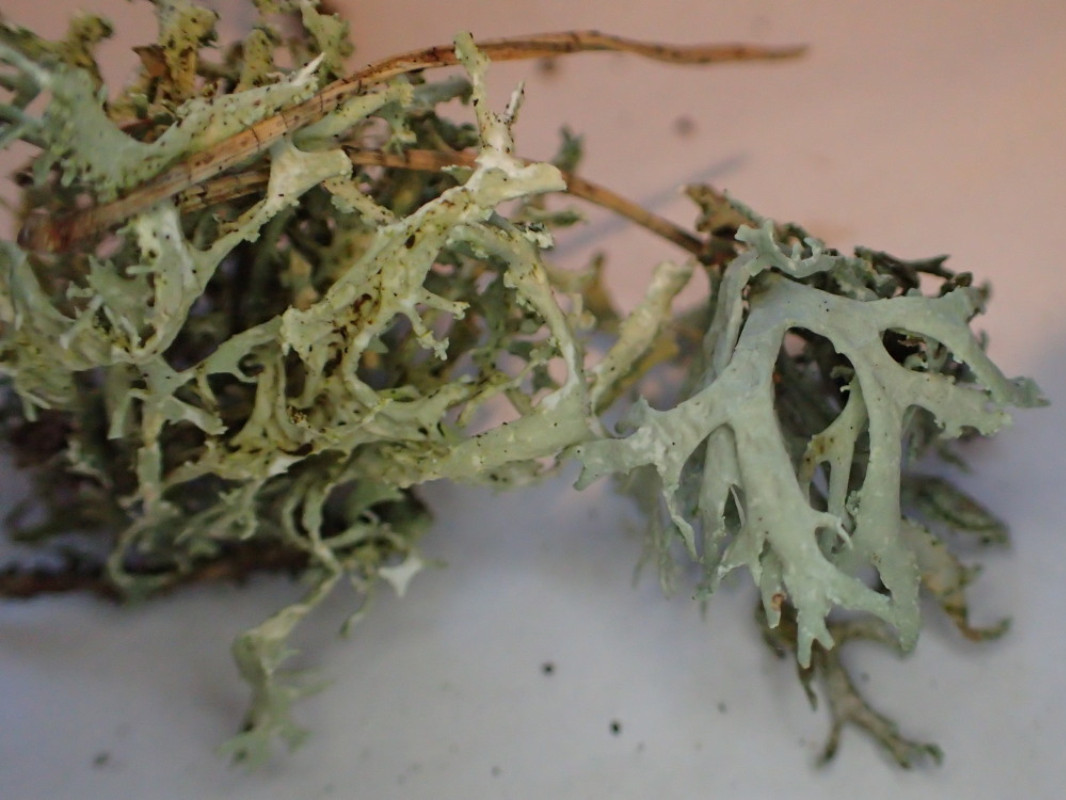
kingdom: Fungi
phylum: Ascomycota
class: Lecanoromycetes
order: Lecanorales
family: Parmeliaceae
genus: Evernia
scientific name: Evernia prunastri
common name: almindelig slåenlav
